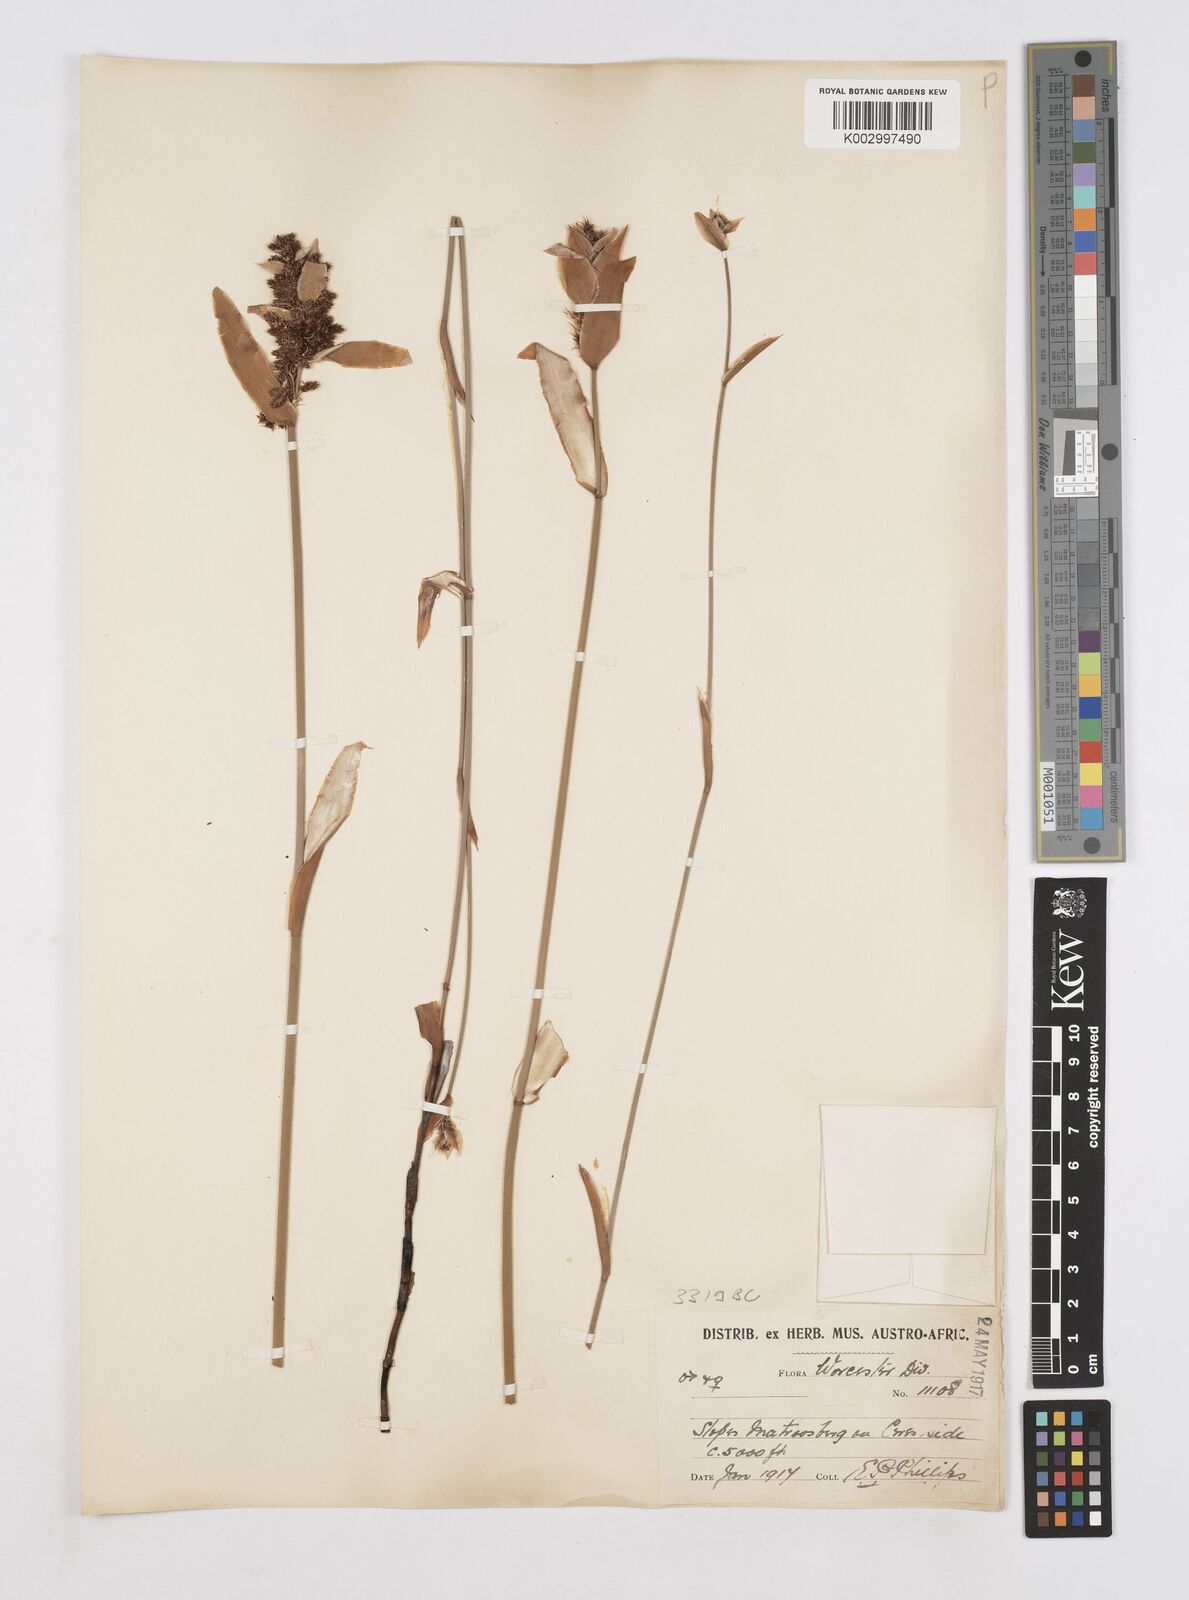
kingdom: Plantae
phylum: Tracheophyta
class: Liliopsida
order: Poales
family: Restionaceae
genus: Elegia
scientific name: Elegia asperiflora
